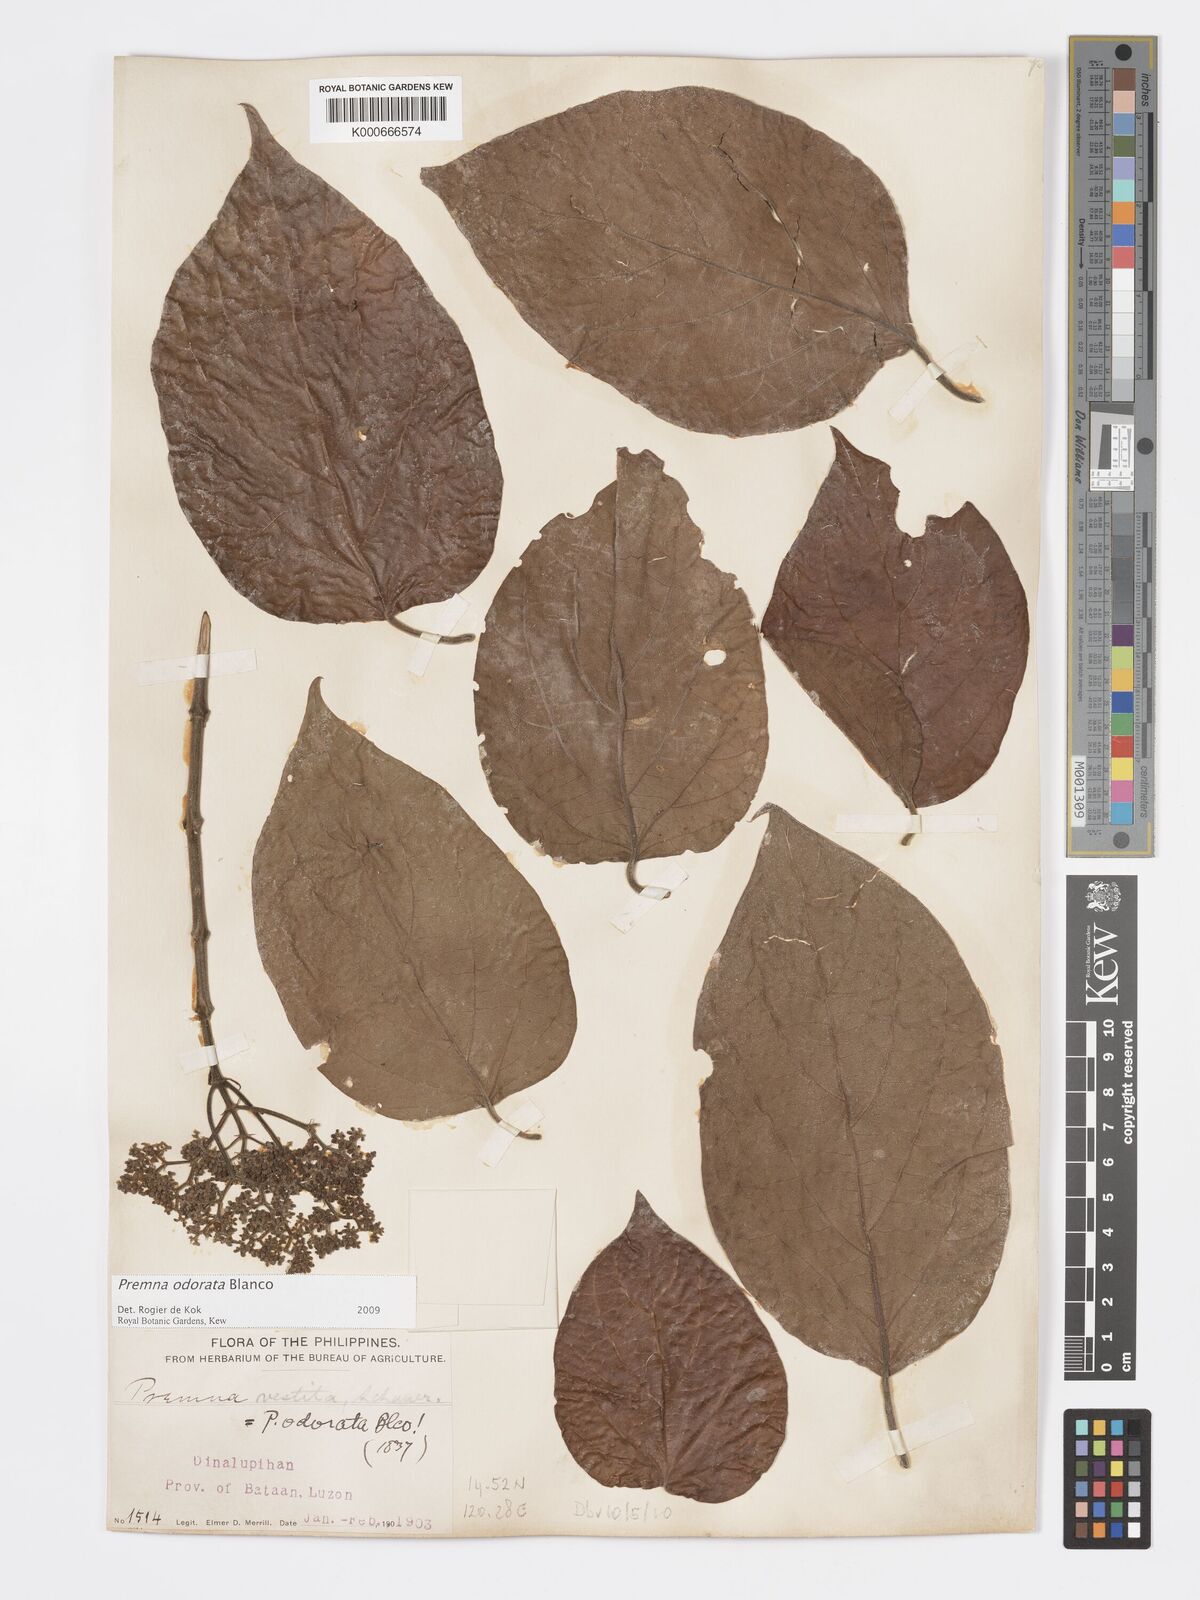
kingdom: Plantae
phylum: Tracheophyta
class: Magnoliopsida
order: Lamiales
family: Lamiaceae
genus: Premna
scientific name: Premna odorata
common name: Fragrant premna
